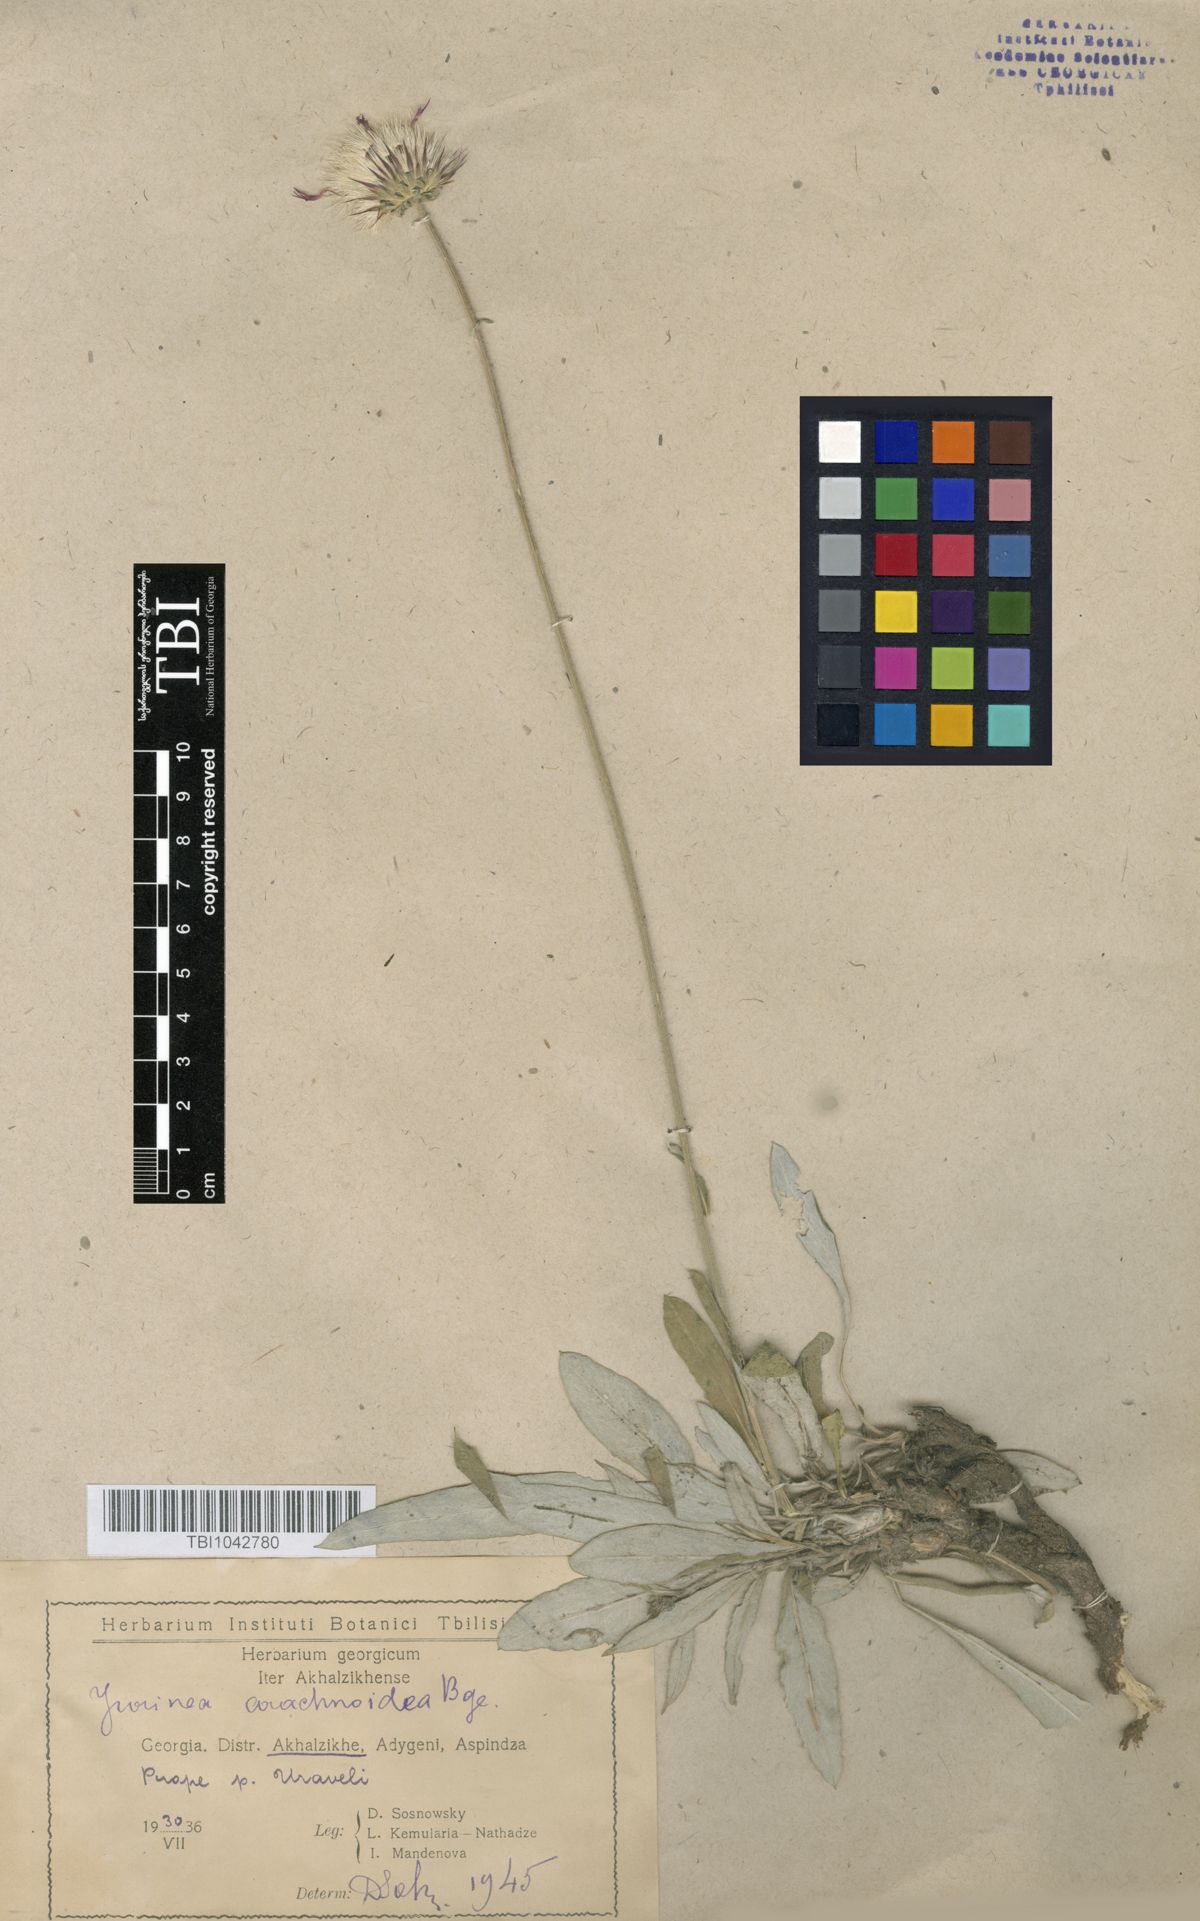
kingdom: Plantae
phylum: Tracheophyta
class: Magnoliopsida
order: Asterales
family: Asteraceae
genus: Jurinea
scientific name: Jurinea blanda
